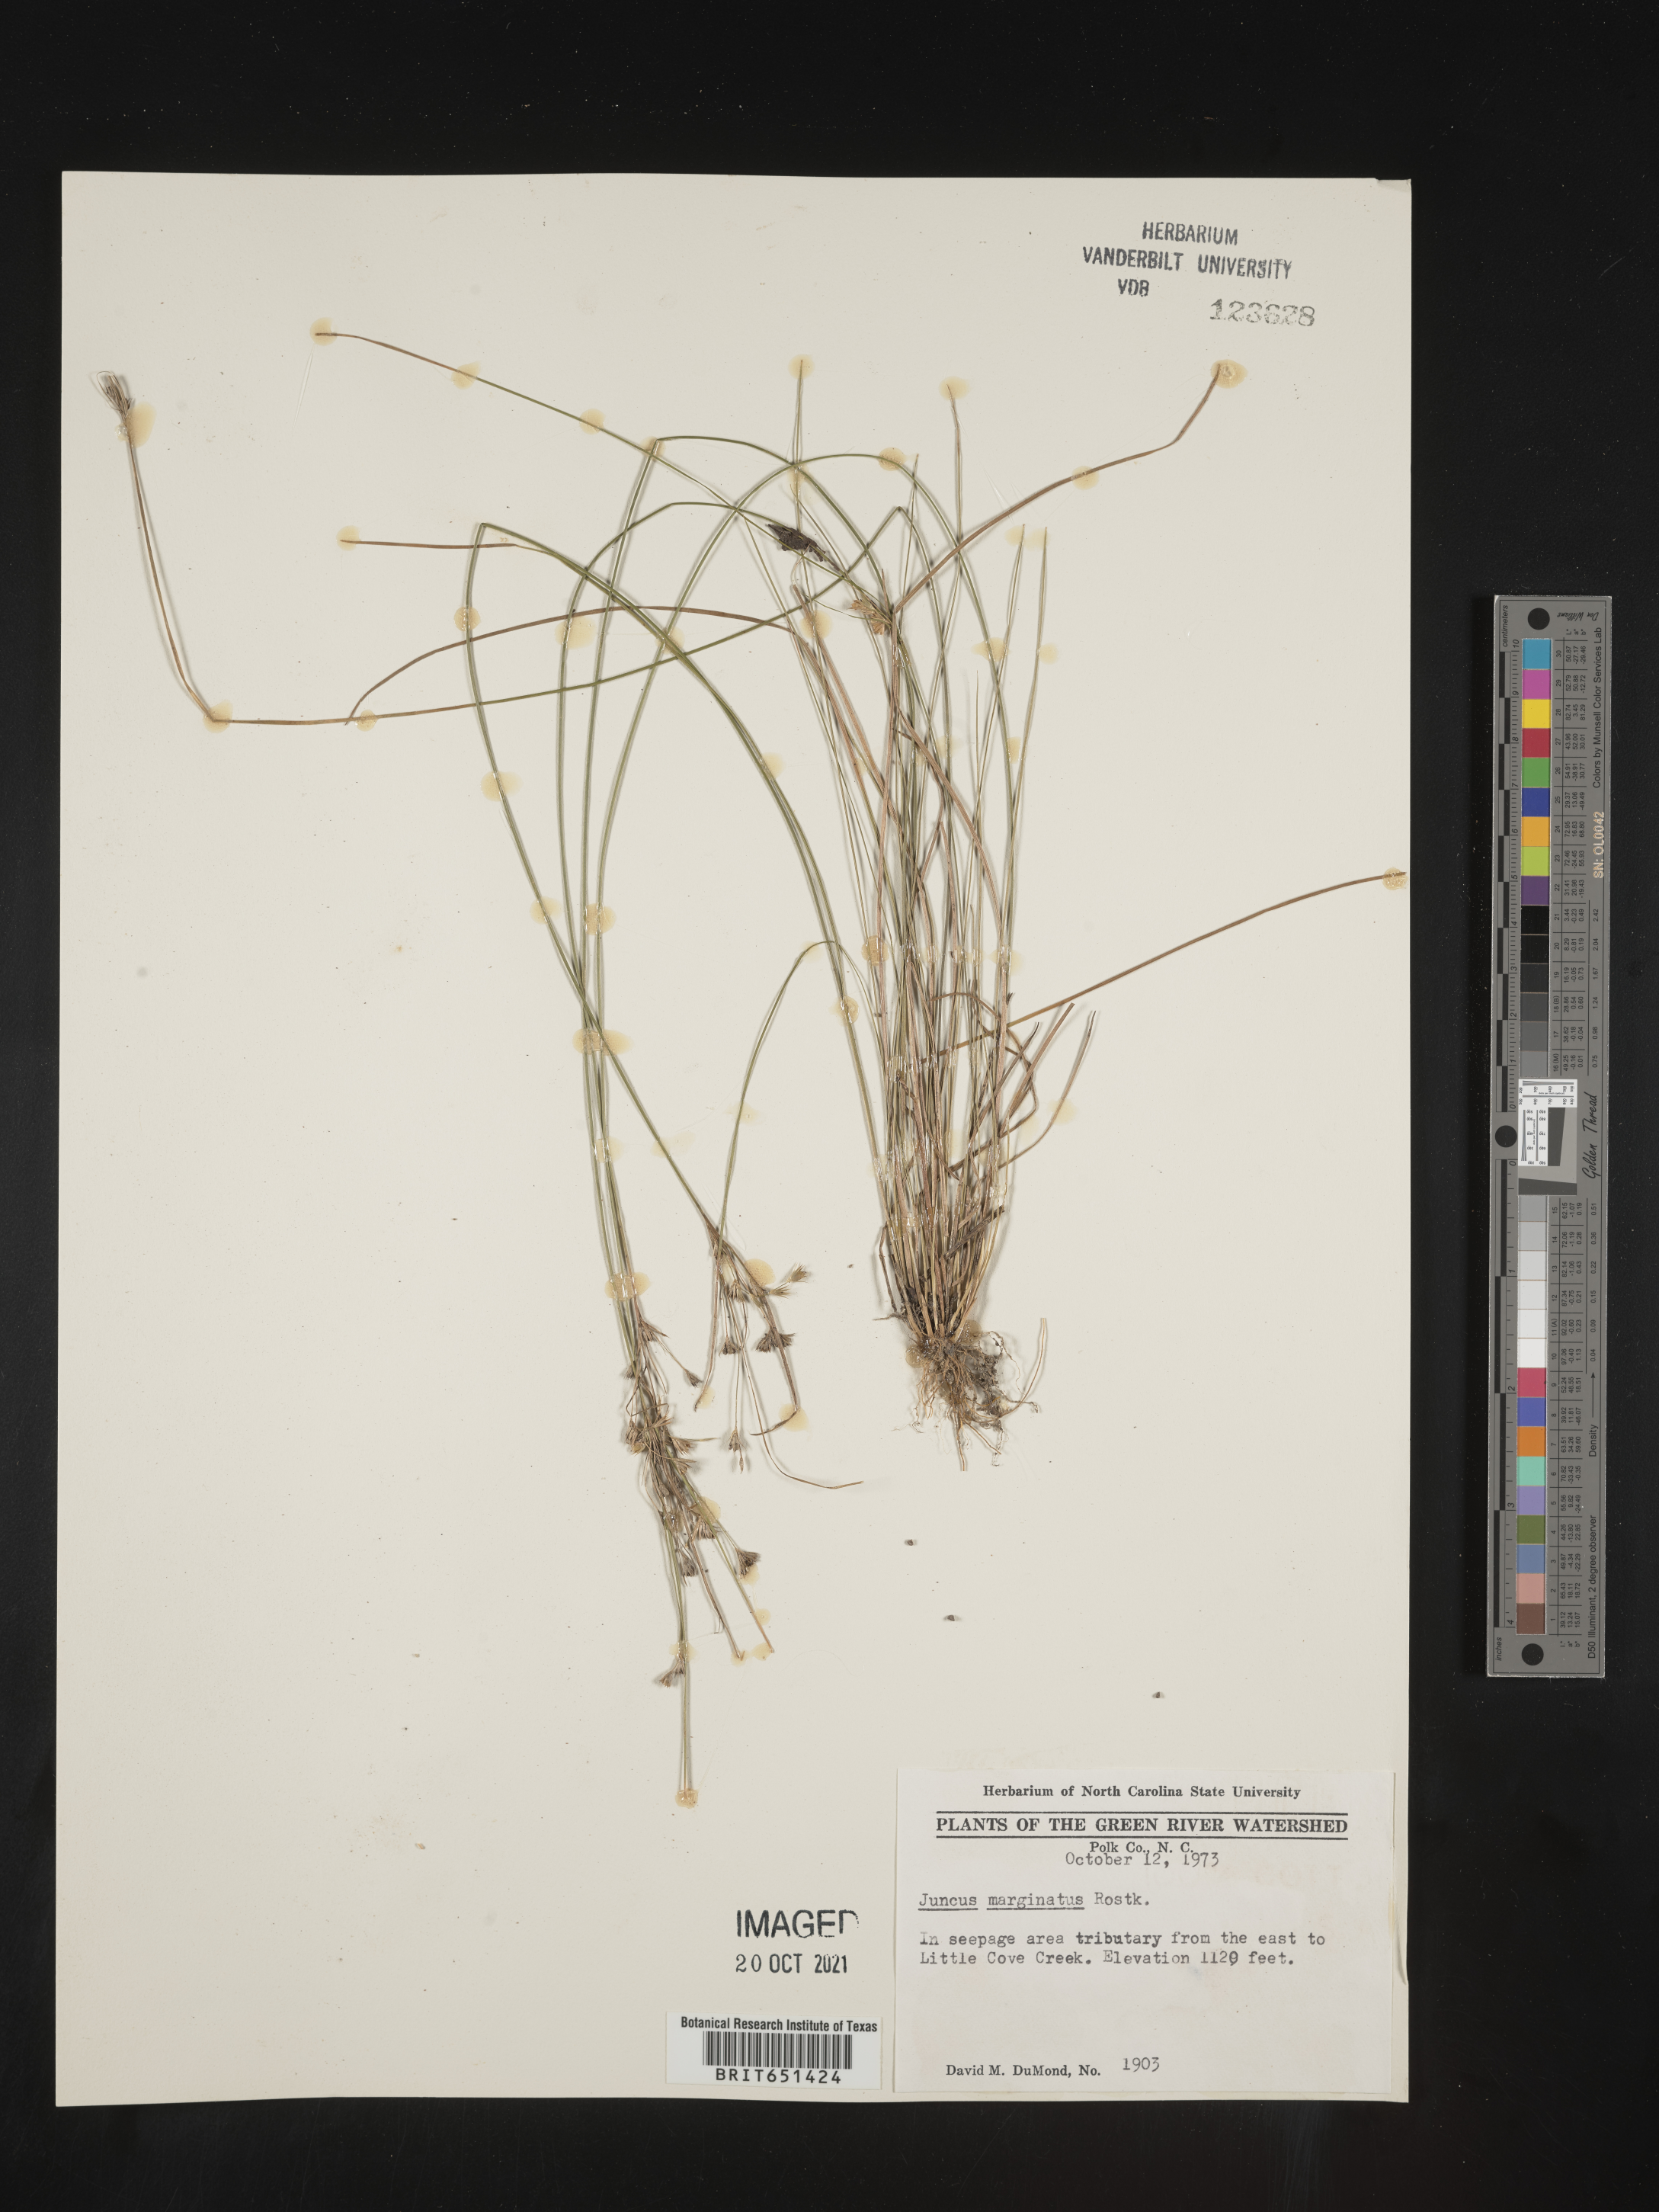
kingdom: Plantae
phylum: Tracheophyta
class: Liliopsida
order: Poales
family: Juncaceae
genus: Juncus
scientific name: Juncus marginatus
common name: Grass-leaf rush
